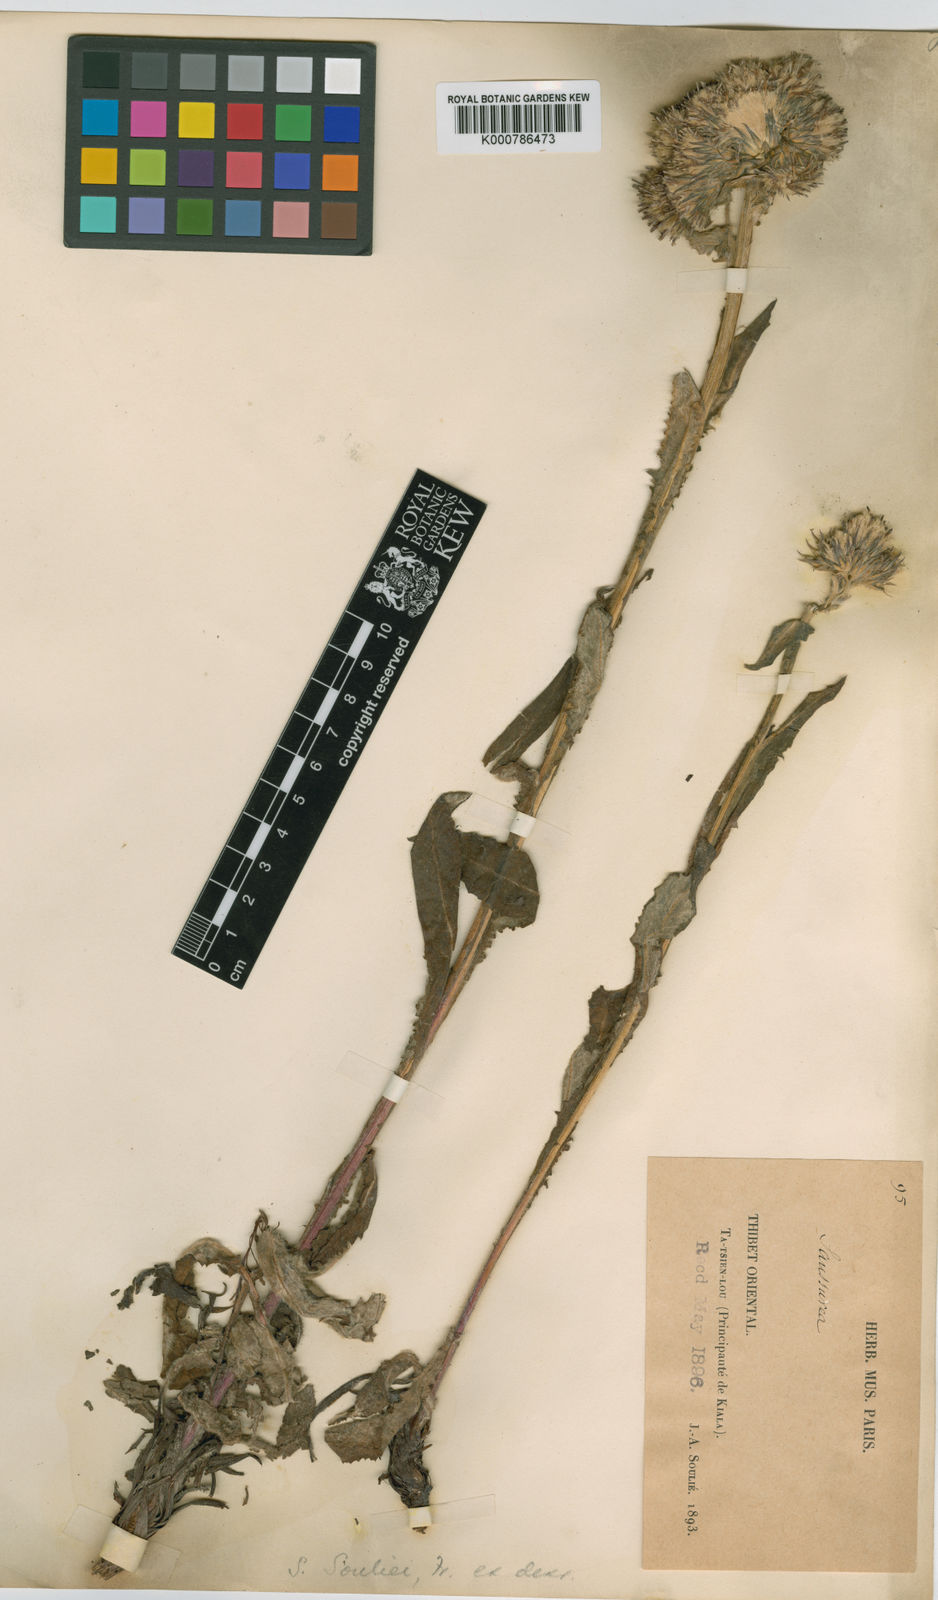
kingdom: Plantae
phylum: Tracheophyta
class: Magnoliopsida
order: Asterales
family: Asteraceae
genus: Saussurea
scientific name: Saussurea souliei
